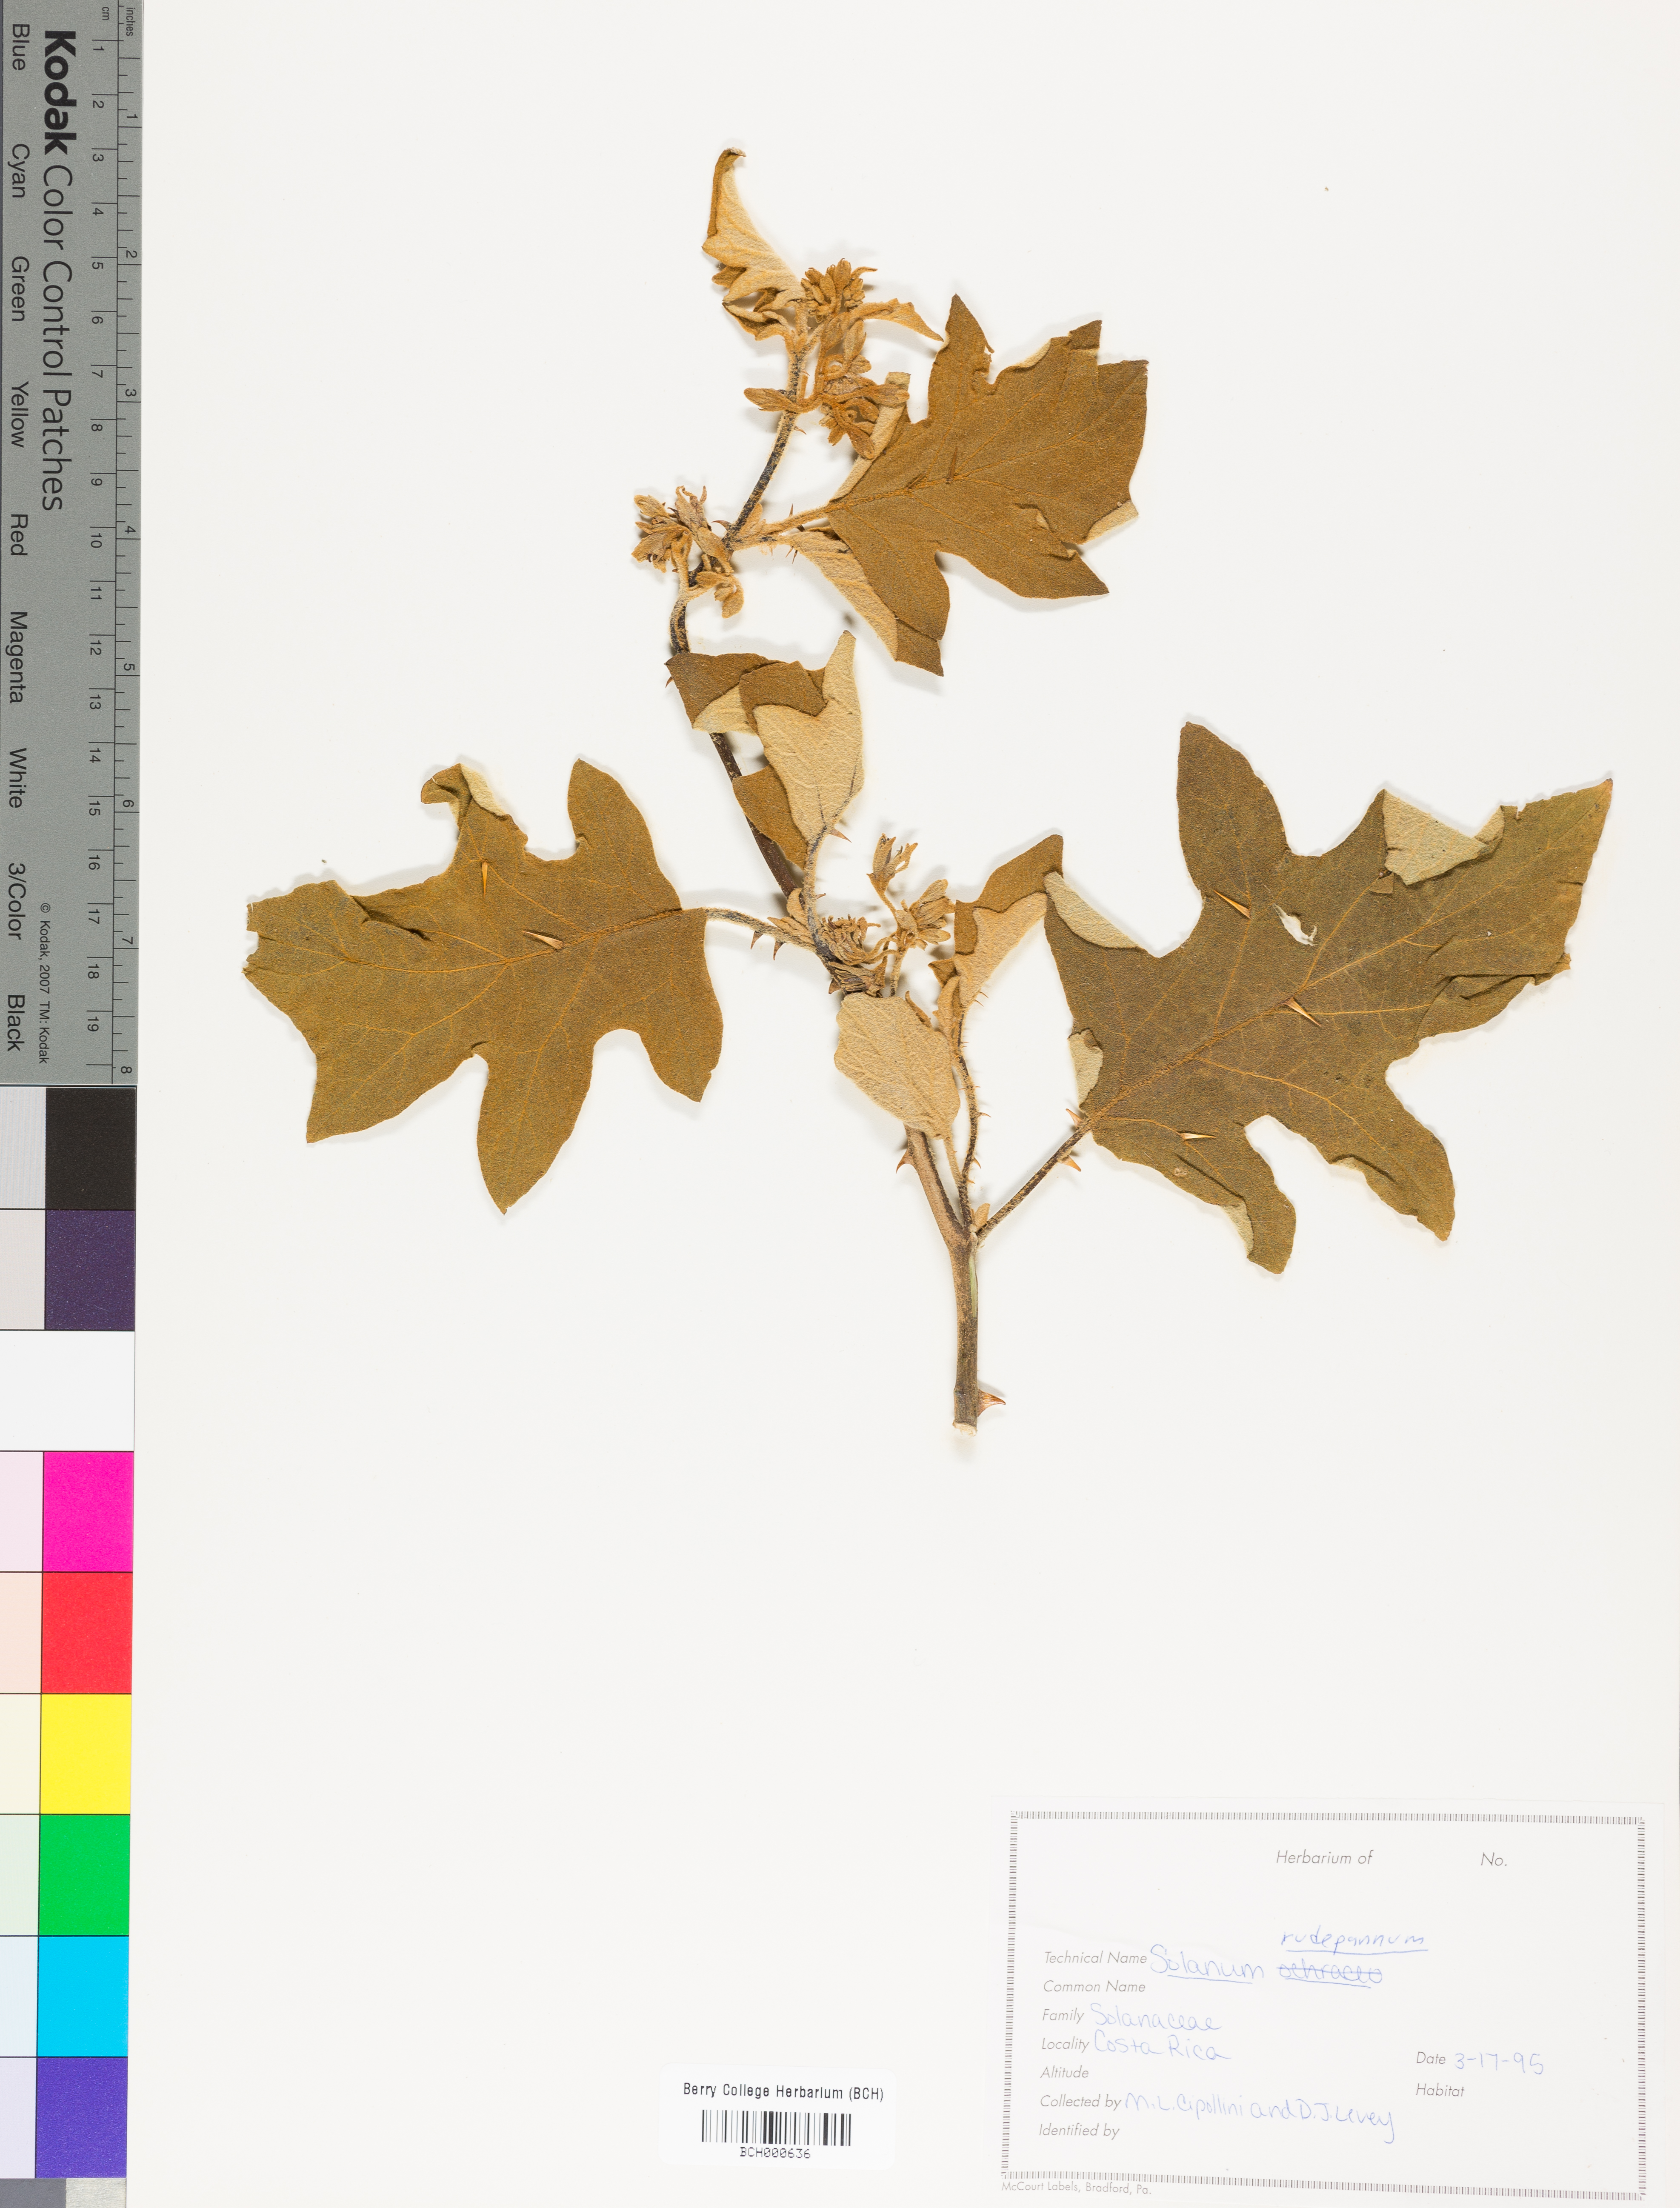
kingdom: Plantae
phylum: Tracheophyta
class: Magnoliopsida
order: Solanales
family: Solanaceae
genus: Solanum
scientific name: Solanum rude-pannum
